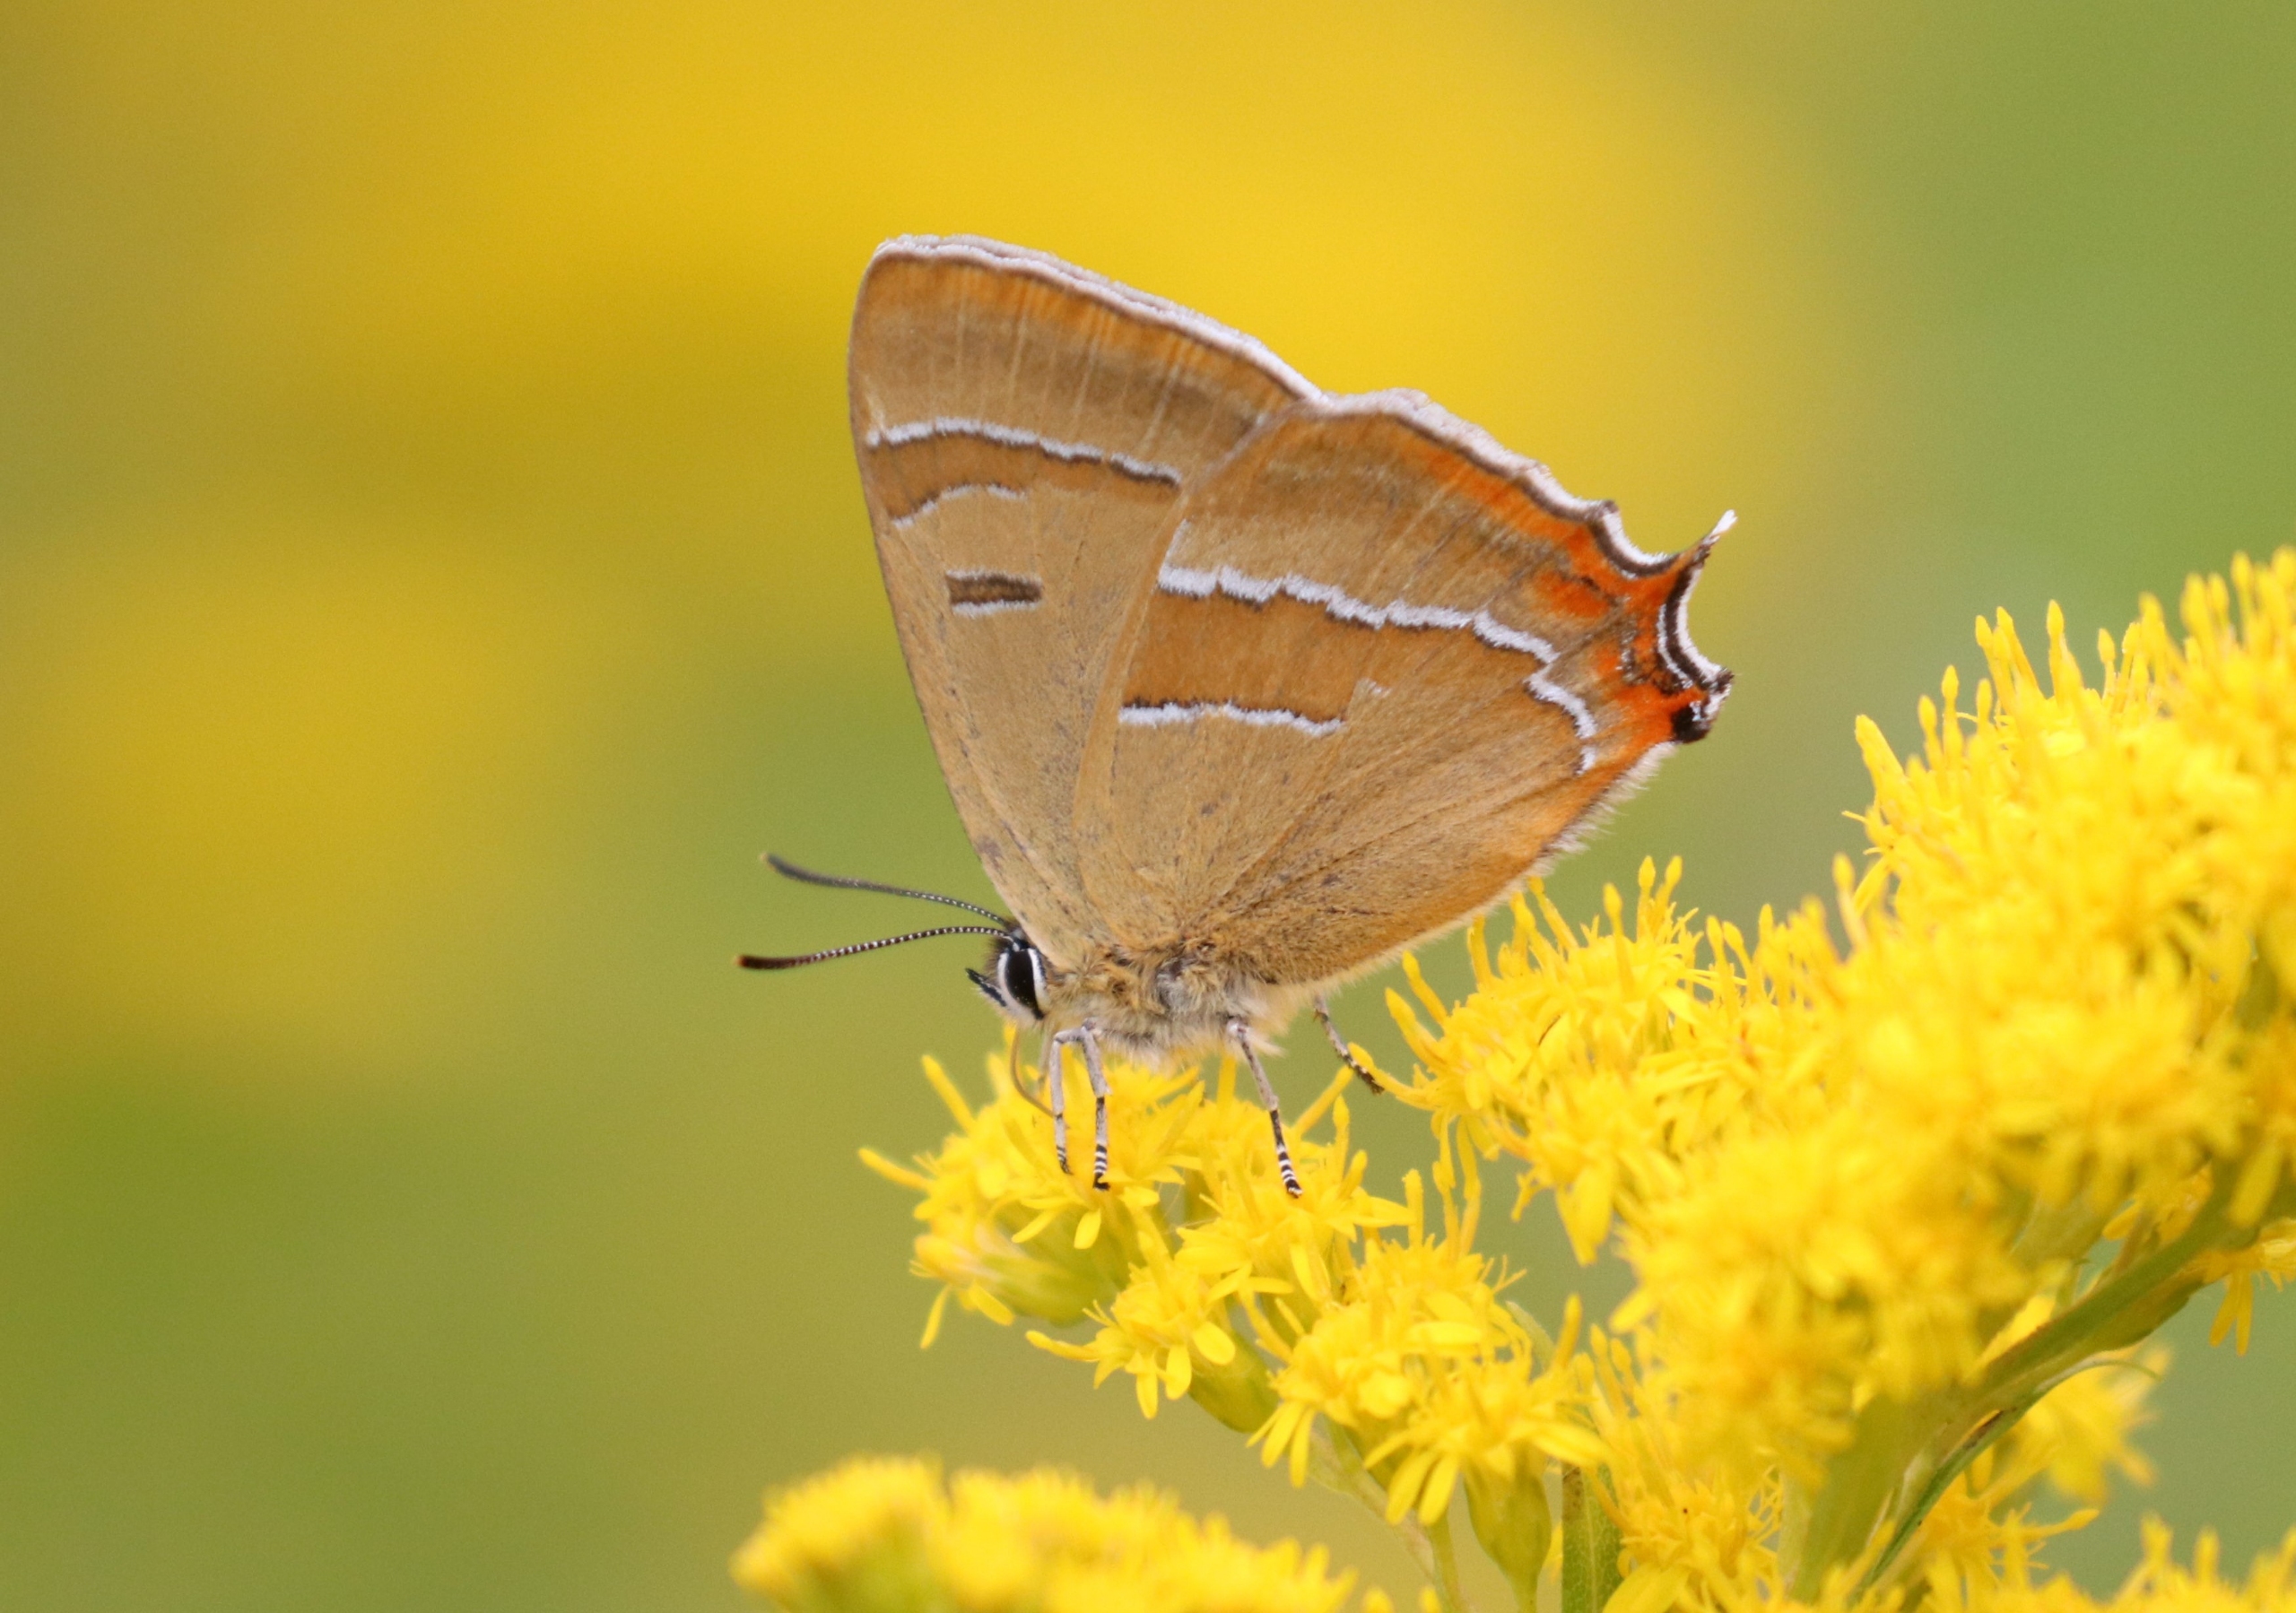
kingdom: Animalia
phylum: Arthropoda
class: Insecta
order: Lepidoptera
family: Lycaenidae
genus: Thecla
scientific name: Thecla betulae
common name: Guldhale
